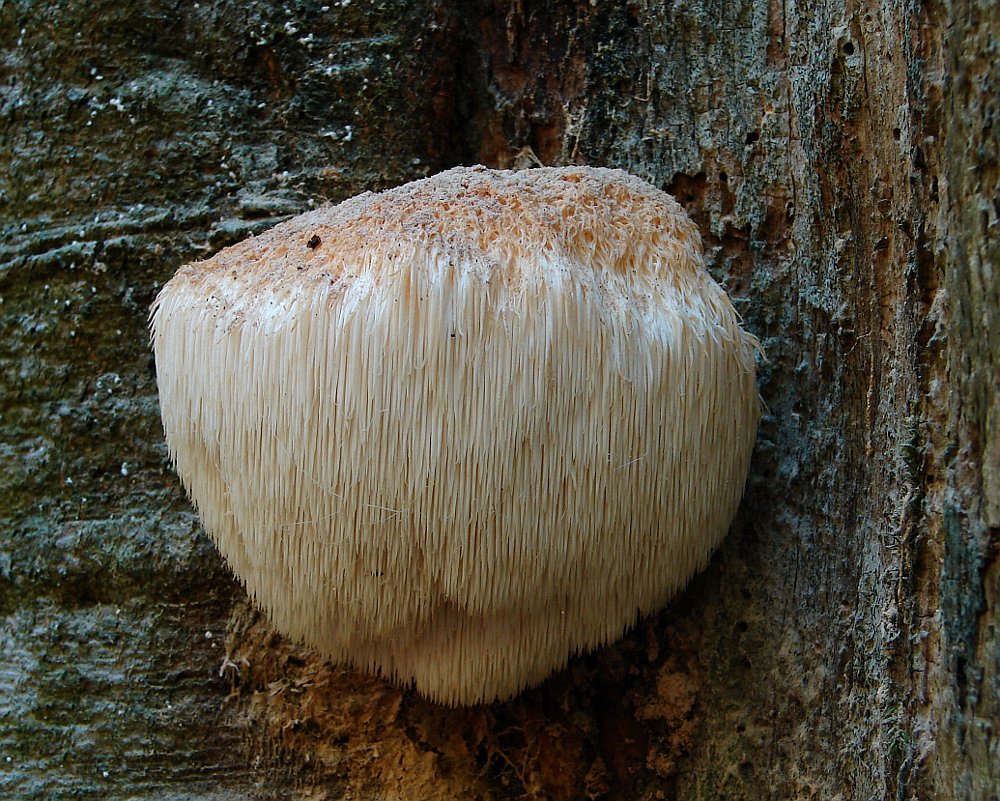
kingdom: Fungi
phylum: Basidiomycota
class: Agaricomycetes
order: Russulales
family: Hericiaceae
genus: Hericium
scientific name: Hericium erinaceus
